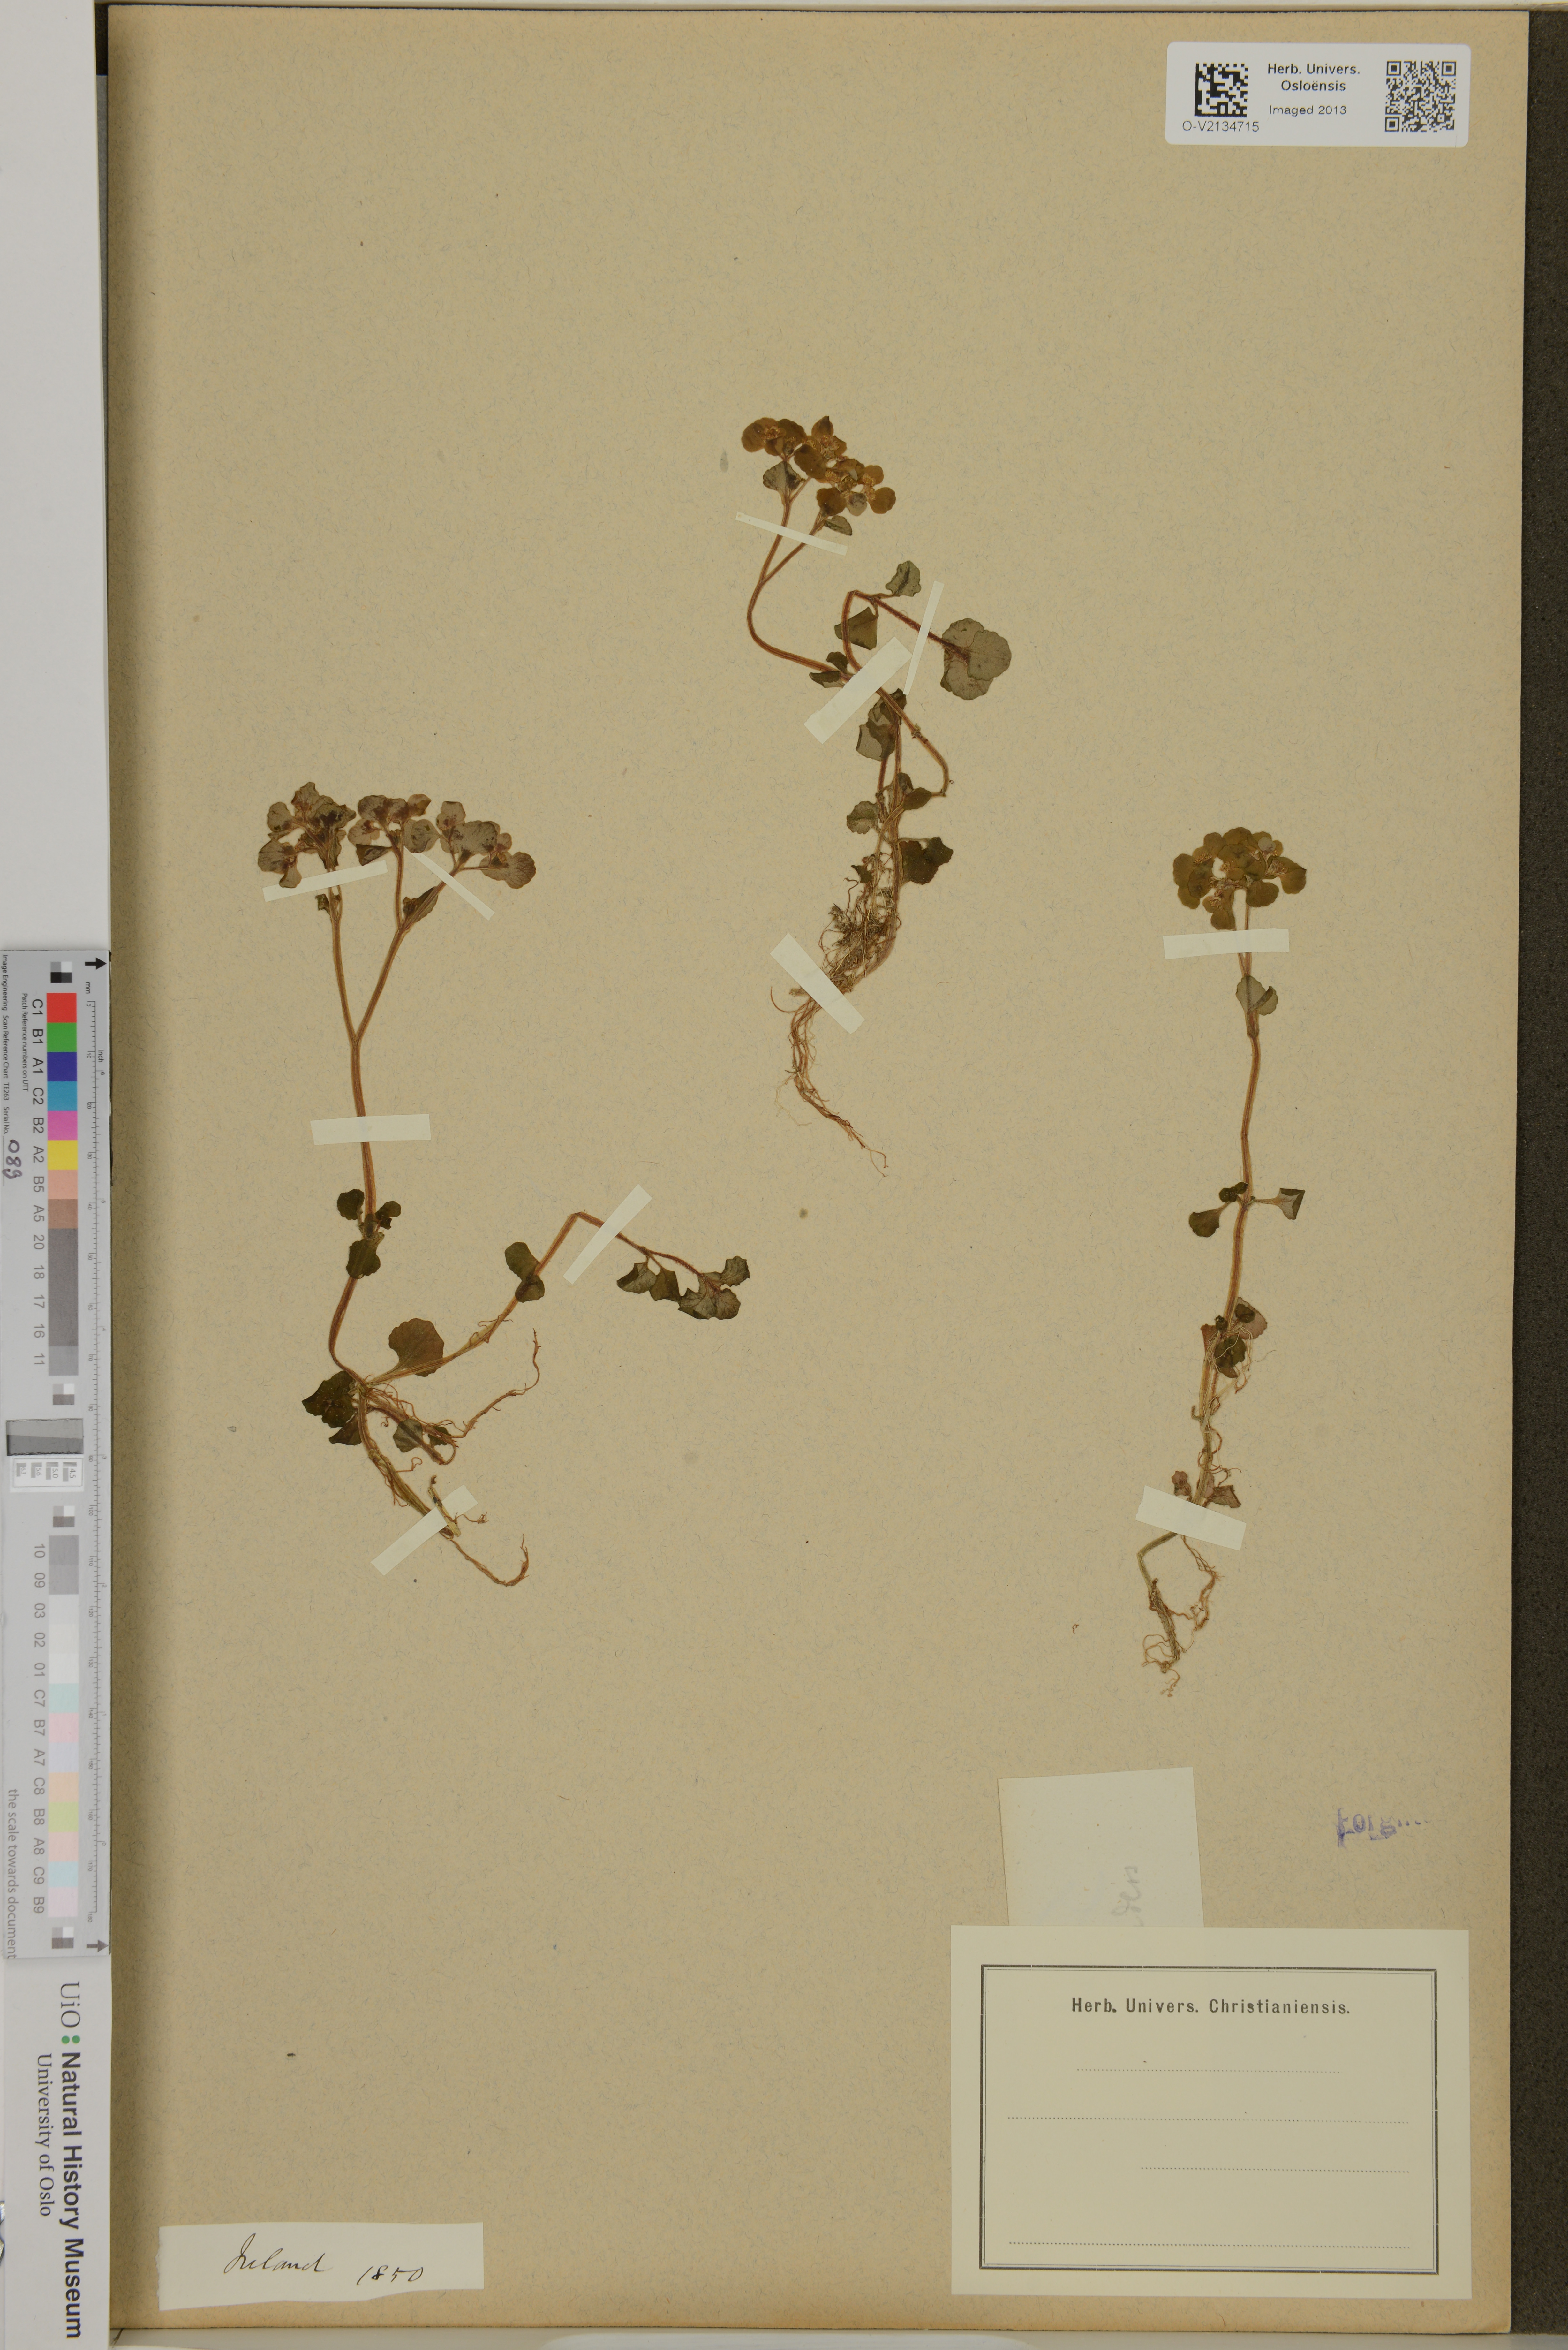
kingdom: Plantae
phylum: Tracheophyta
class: Magnoliopsida
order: Saxifragales
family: Saxifragaceae
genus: Chrysosplenium
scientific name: Chrysosplenium
